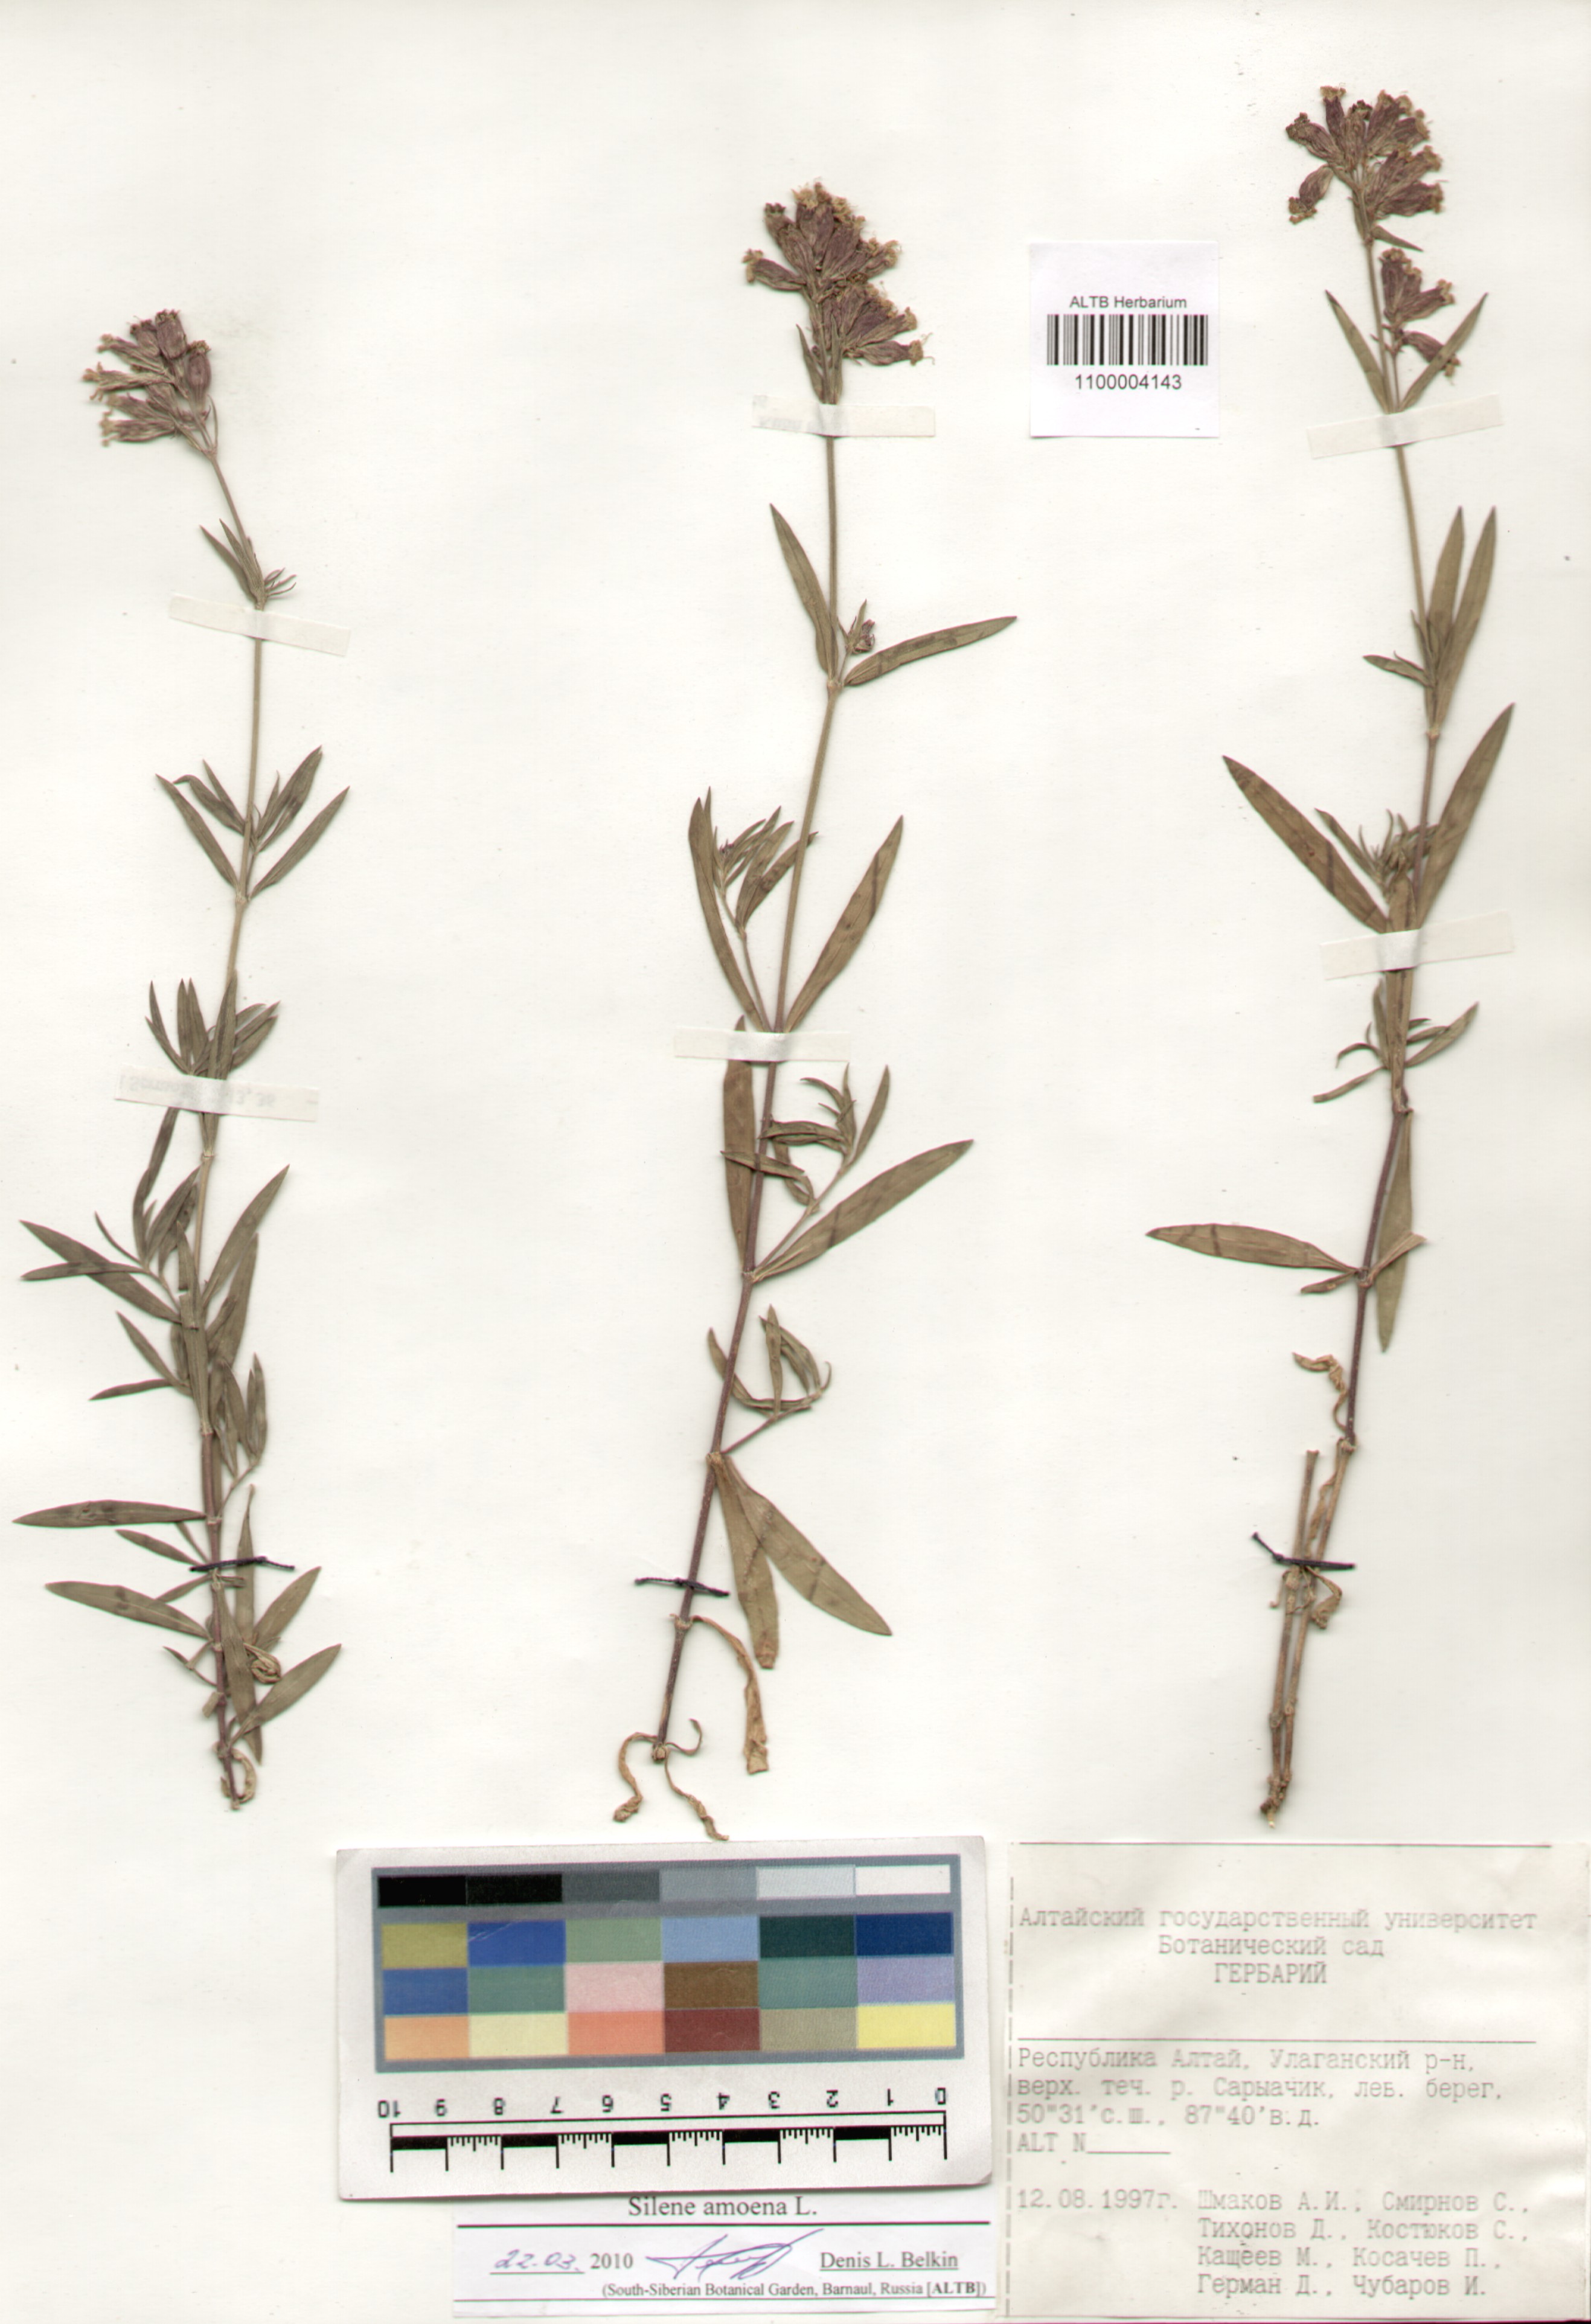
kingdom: Plantae
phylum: Tracheophyta
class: Magnoliopsida
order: Caryophyllales
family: Caryophyllaceae
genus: Silene
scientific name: Silene amoena
